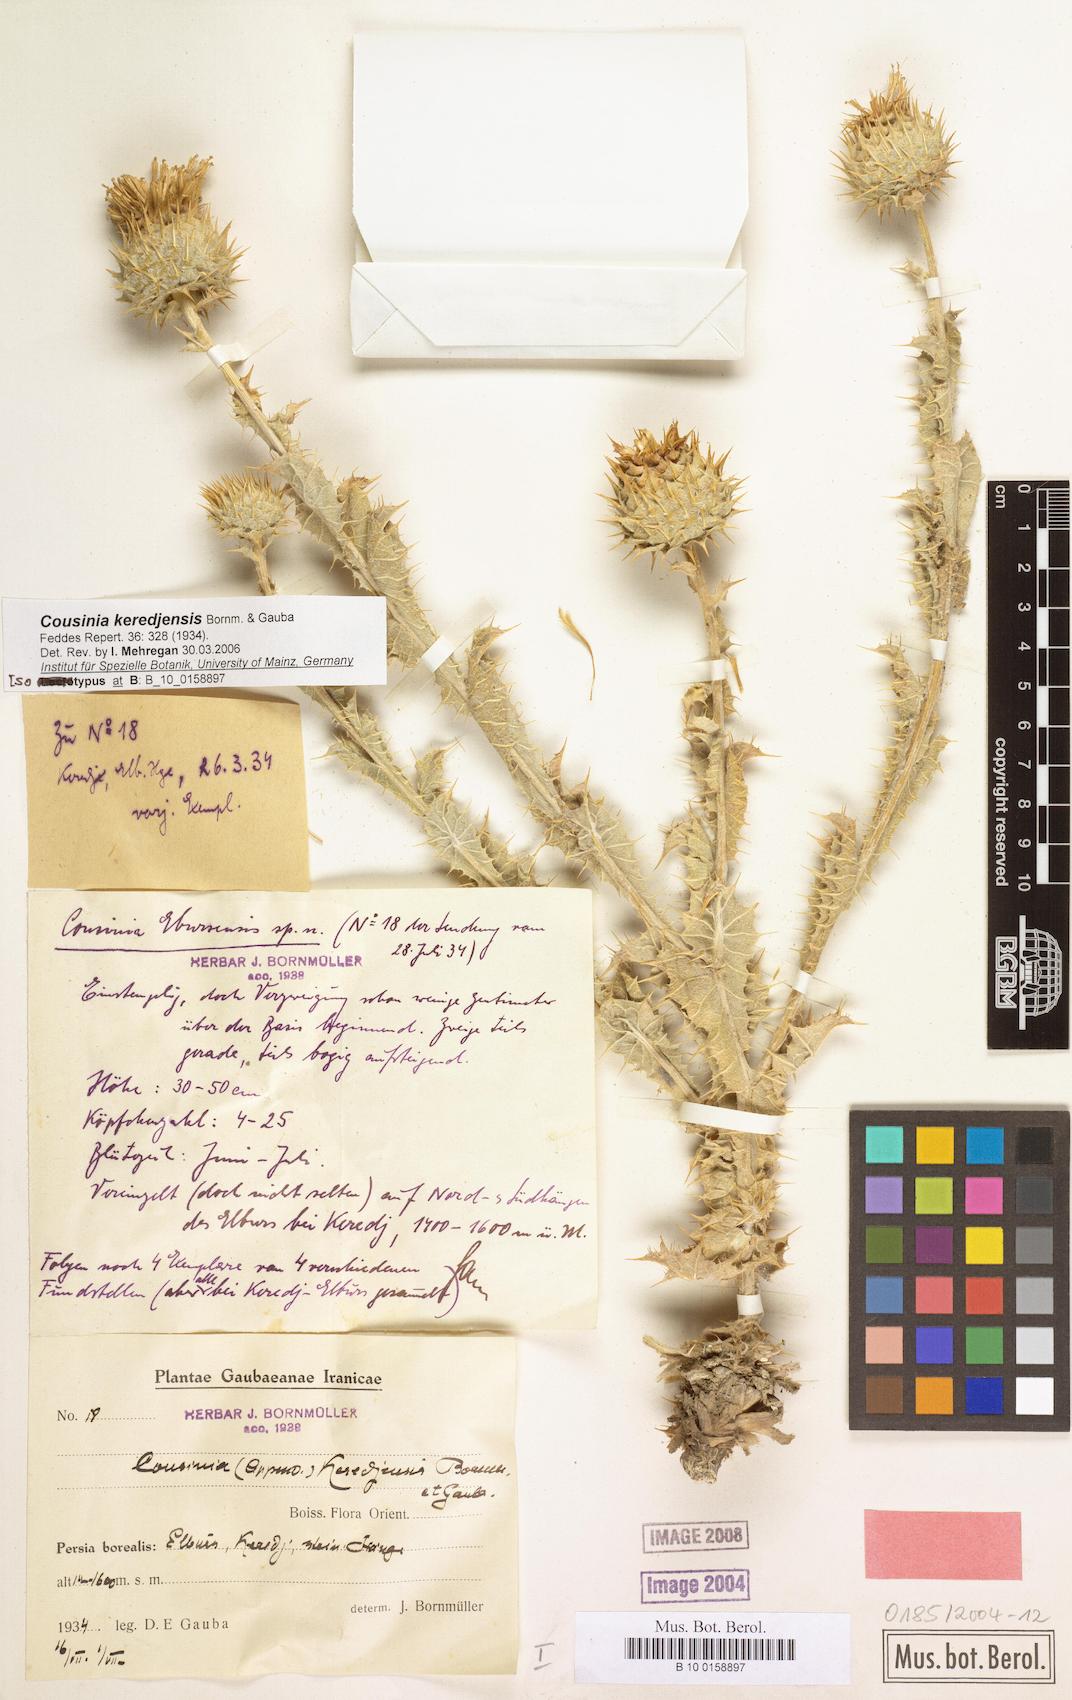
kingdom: Plantae
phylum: Tracheophyta
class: Magnoliopsida
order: Asterales
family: Asteraceae
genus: Cousinia
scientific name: Cousinia keredjensis
